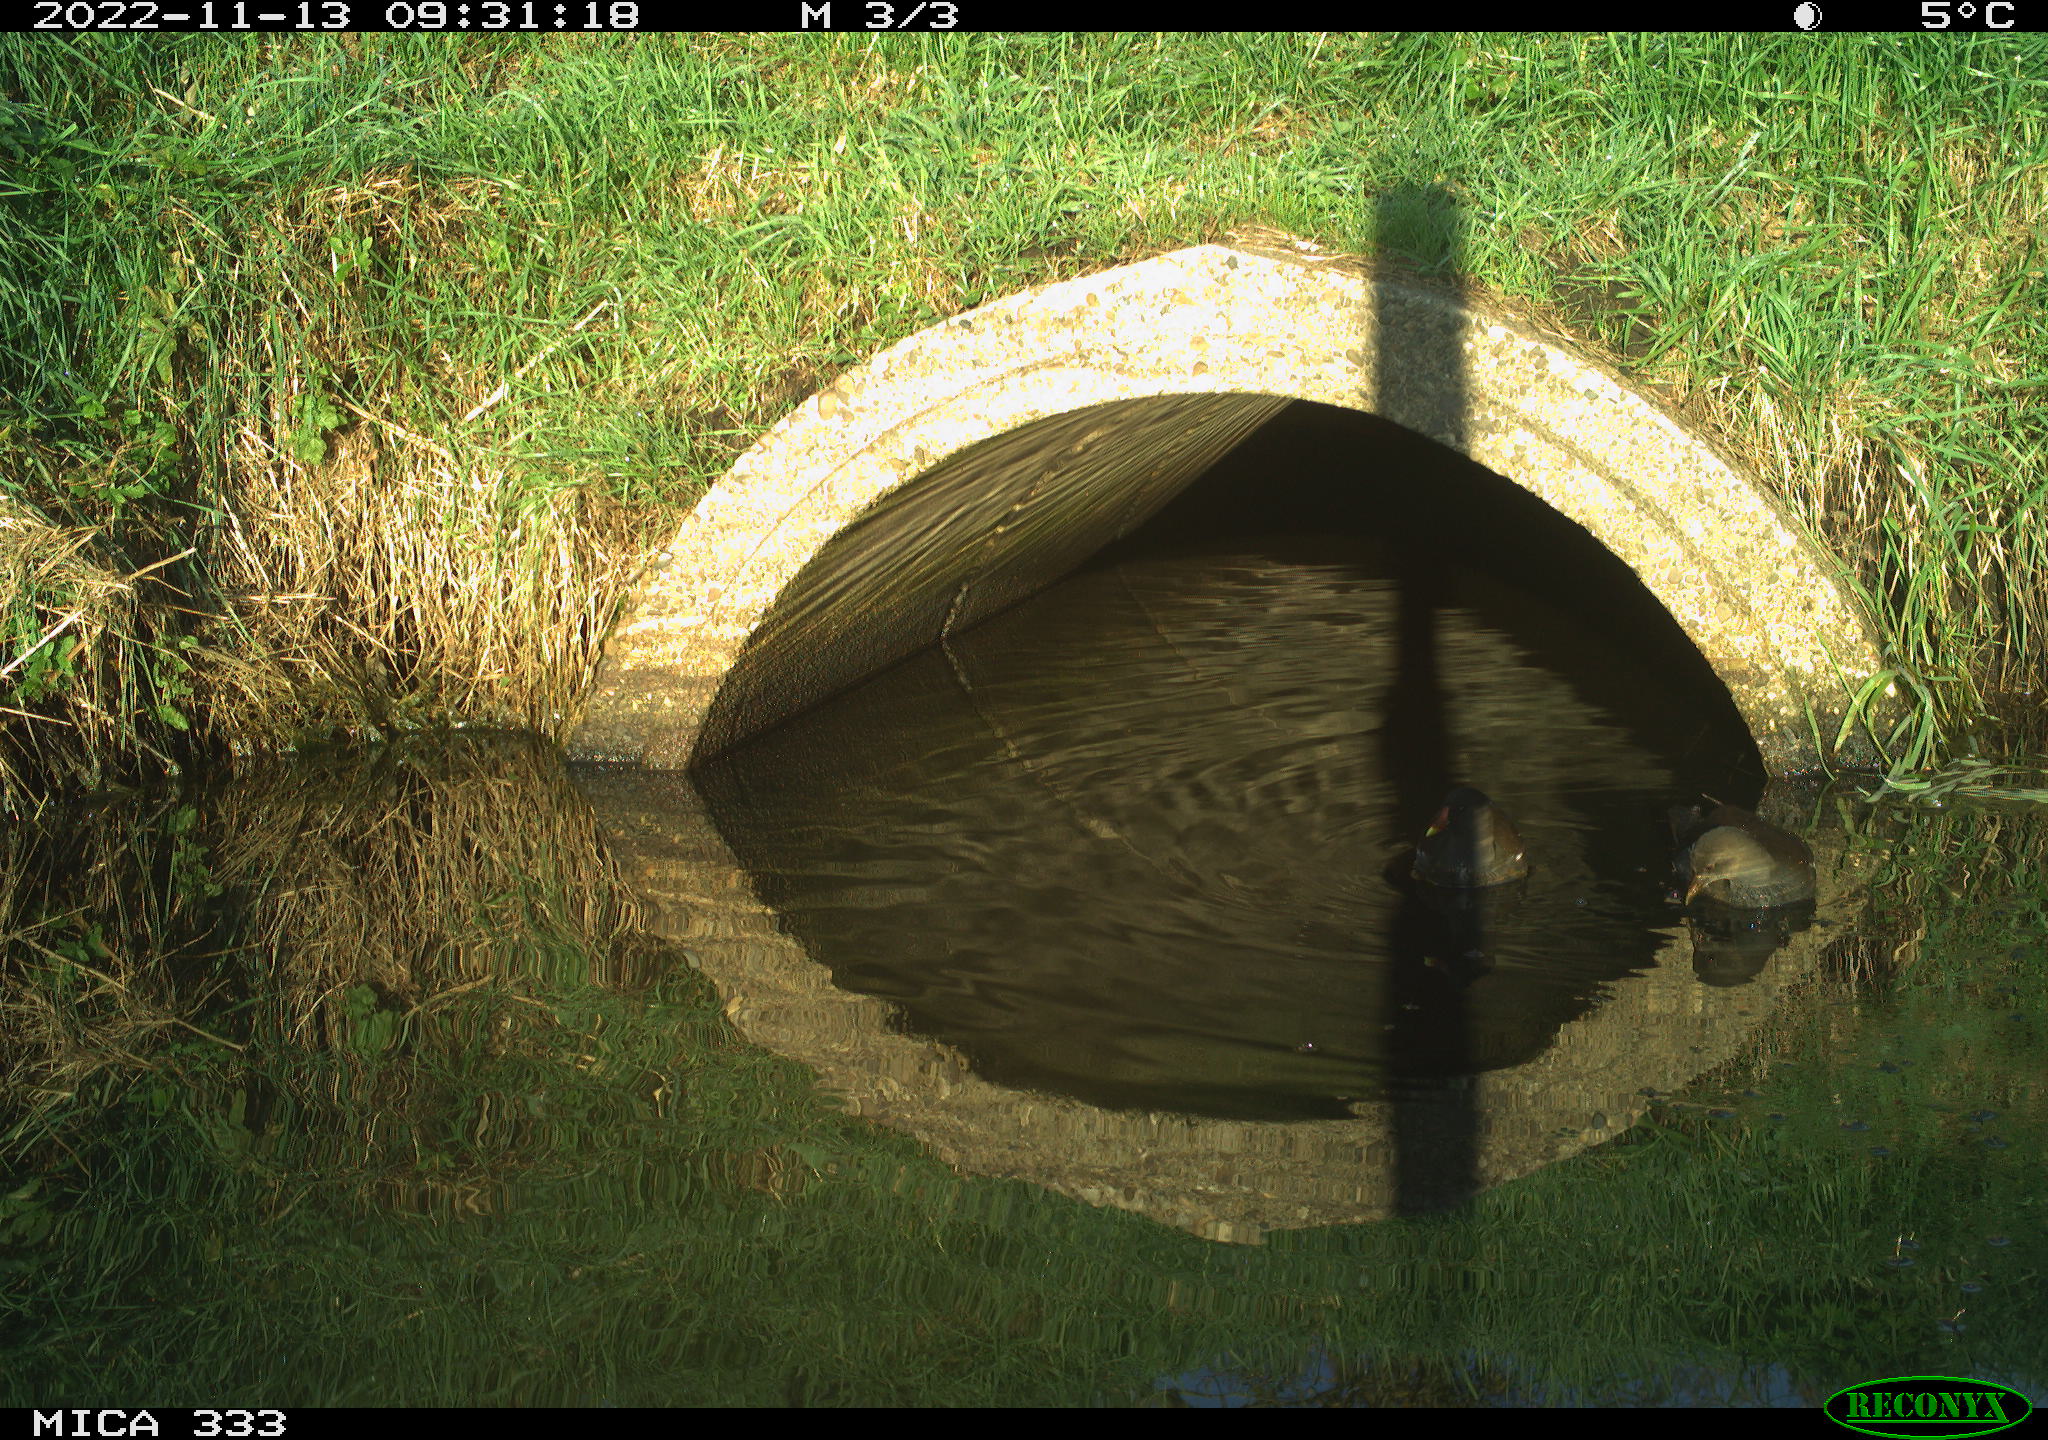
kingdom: Animalia
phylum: Chordata
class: Aves
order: Gruiformes
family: Rallidae
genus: Gallinula
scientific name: Gallinula chloropus
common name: Common moorhen
